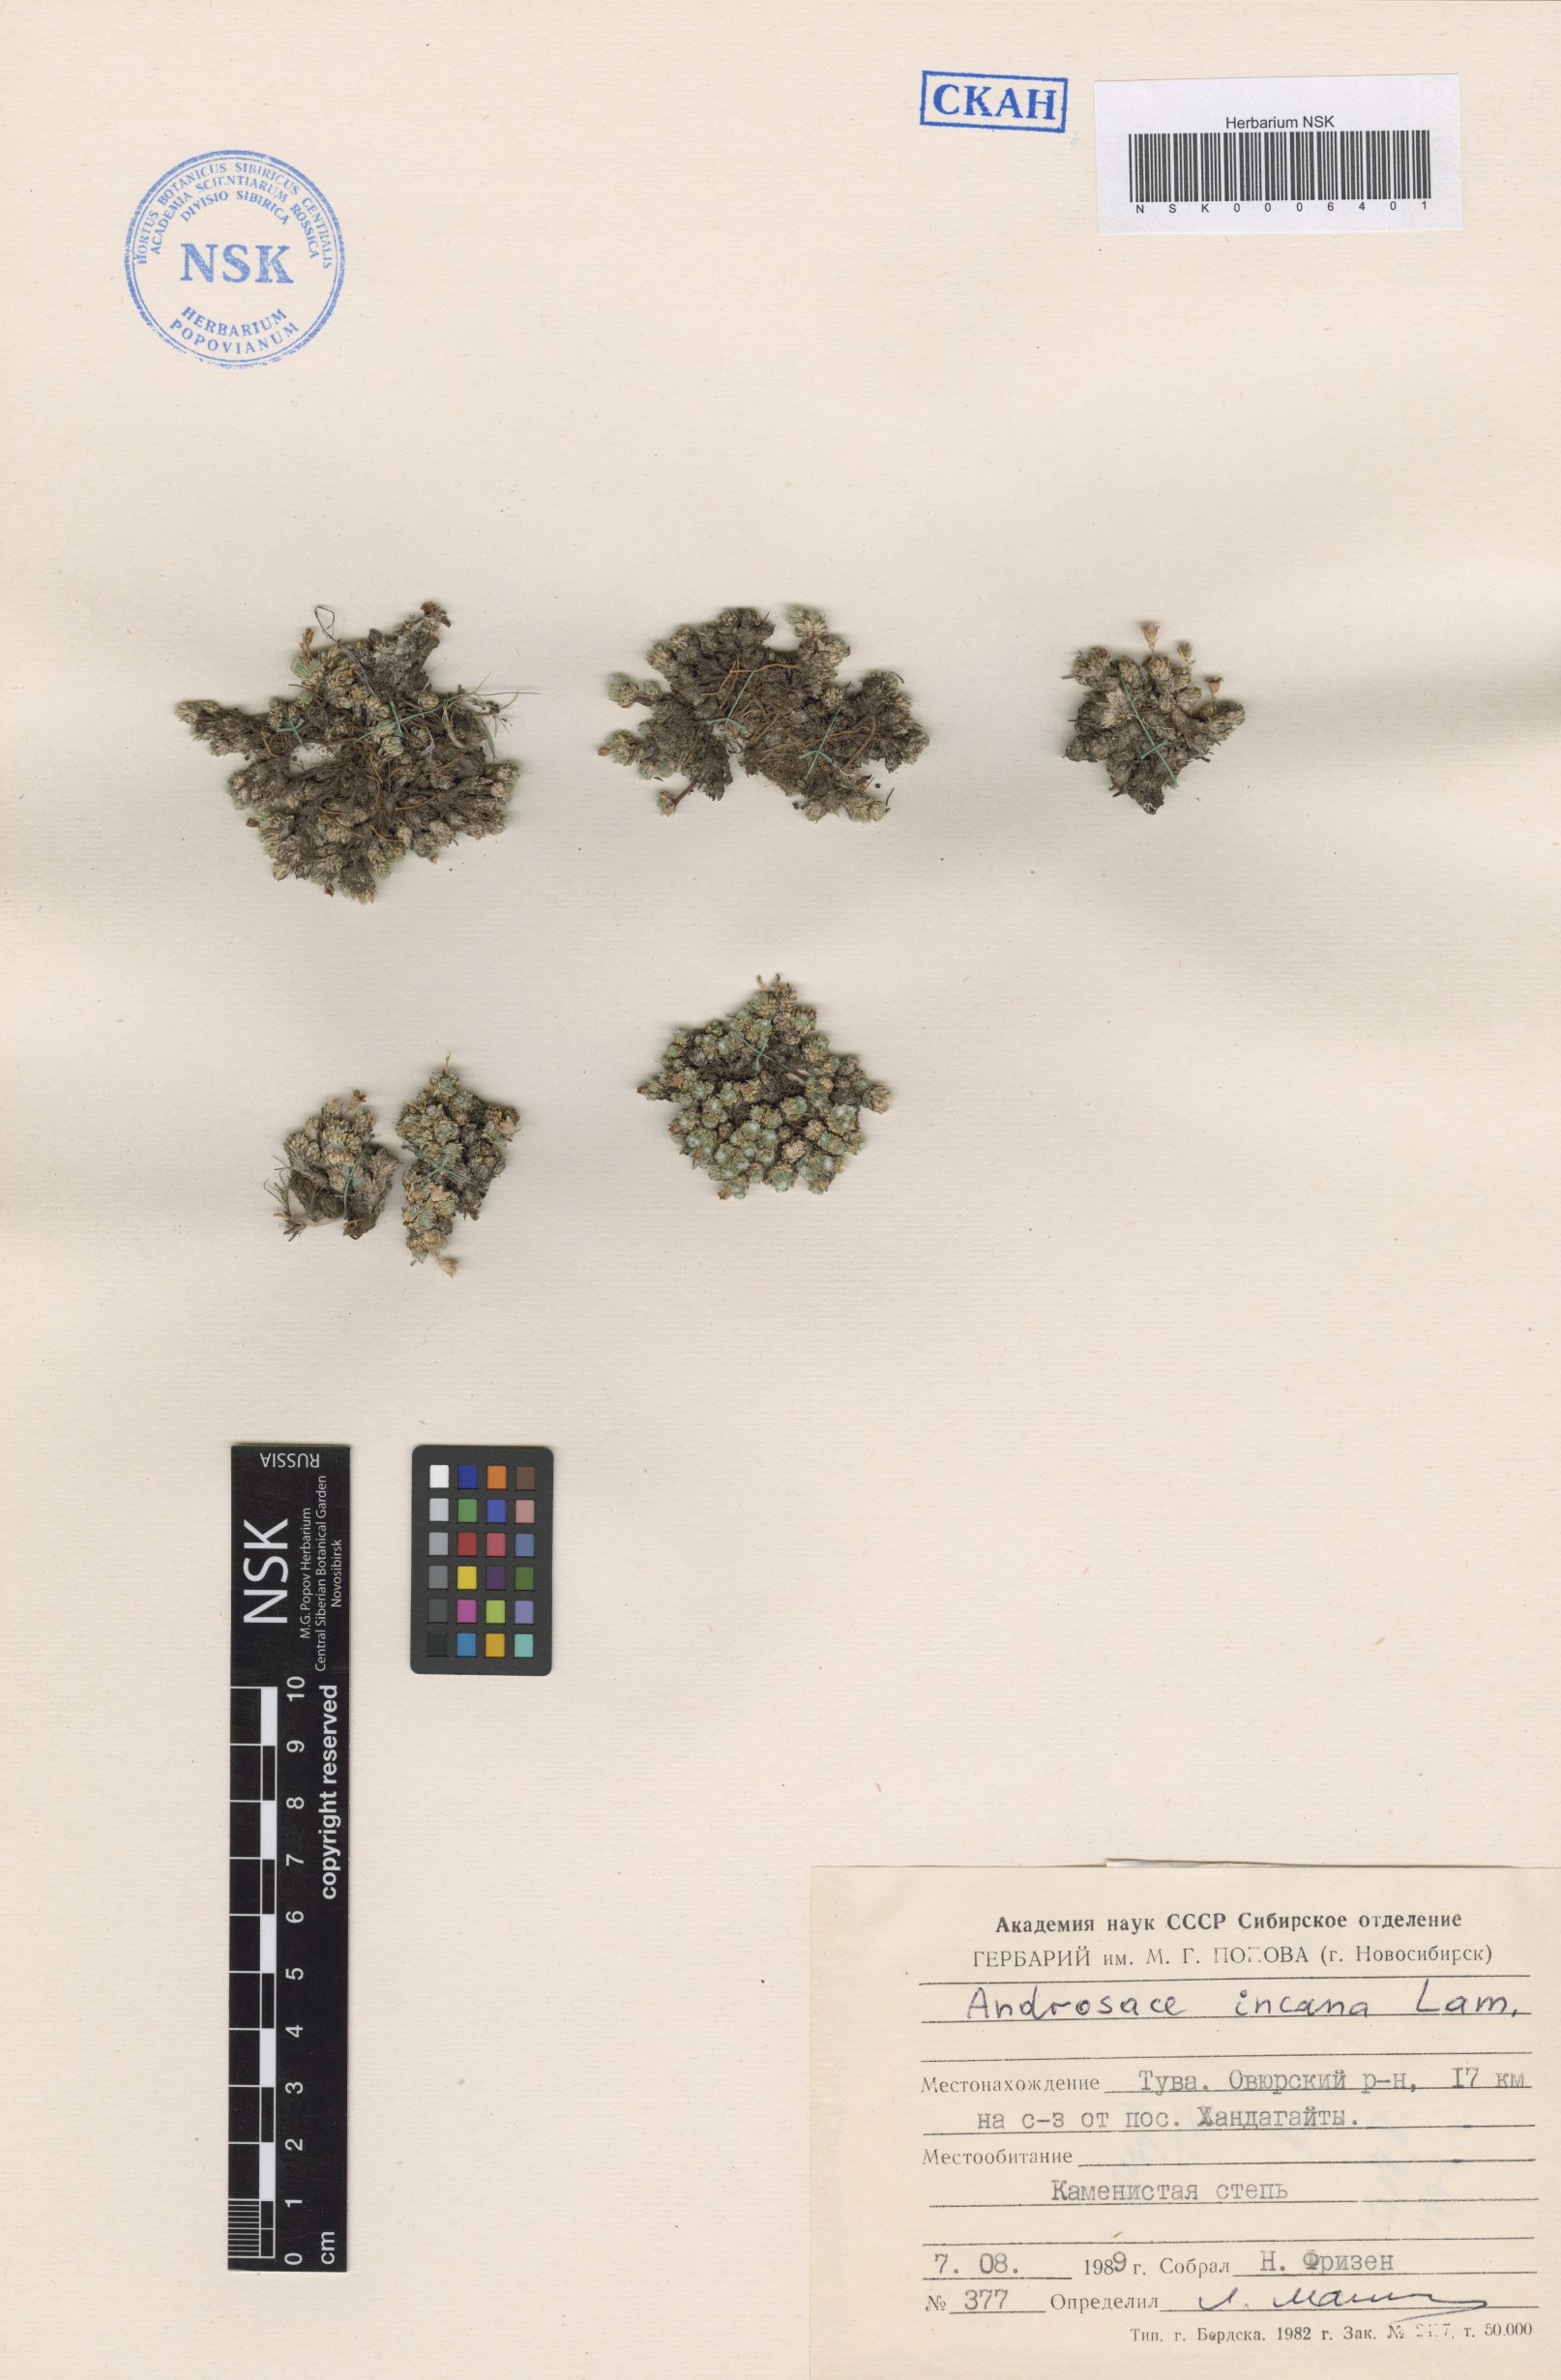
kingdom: Plantae
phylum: Tracheophyta
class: Magnoliopsida
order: Ericales
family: Primulaceae
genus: Androsace
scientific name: Androsace incana
